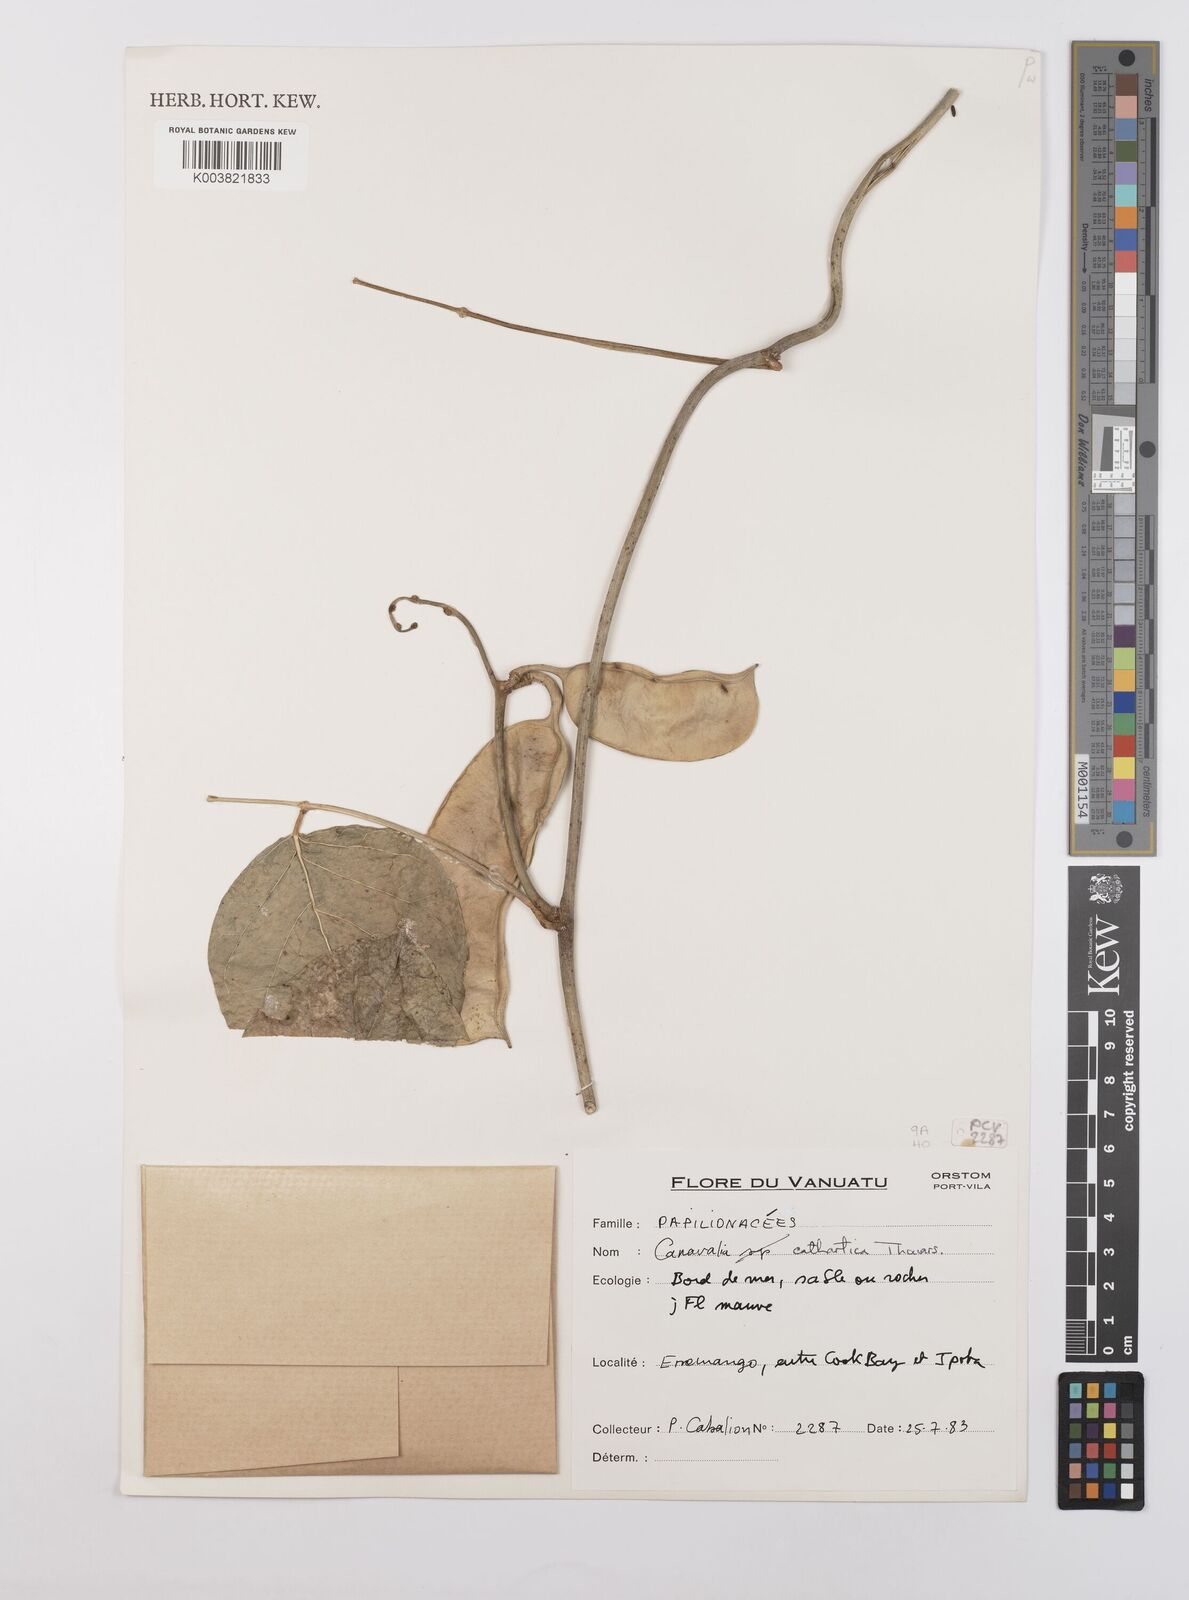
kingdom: Plantae
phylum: Tracheophyta
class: Magnoliopsida
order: Fabales
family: Fabaceae
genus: Canavalia
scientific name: Canavalia cathartica
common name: Maunaloa
